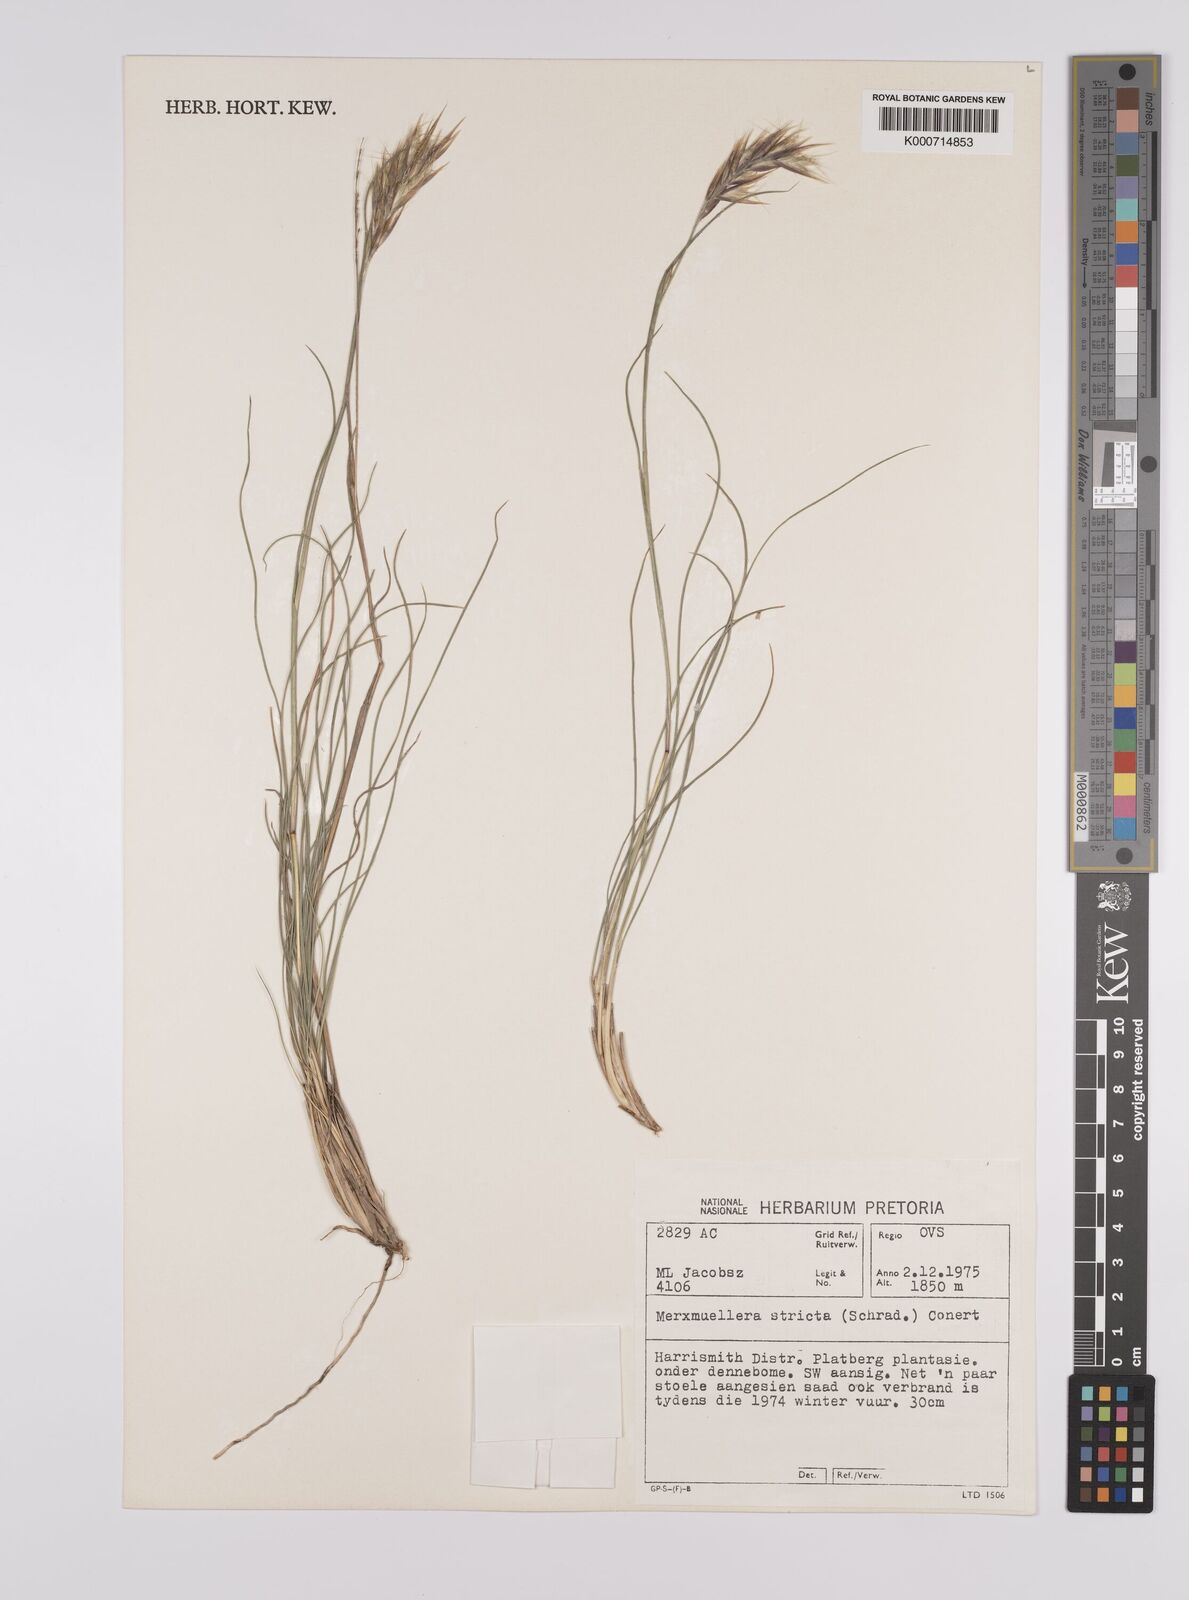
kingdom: Plantae
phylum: Tracheophyta
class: Liliopsida
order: Poales
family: Poaceae
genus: Rytidosperma
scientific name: Rytidosperma
